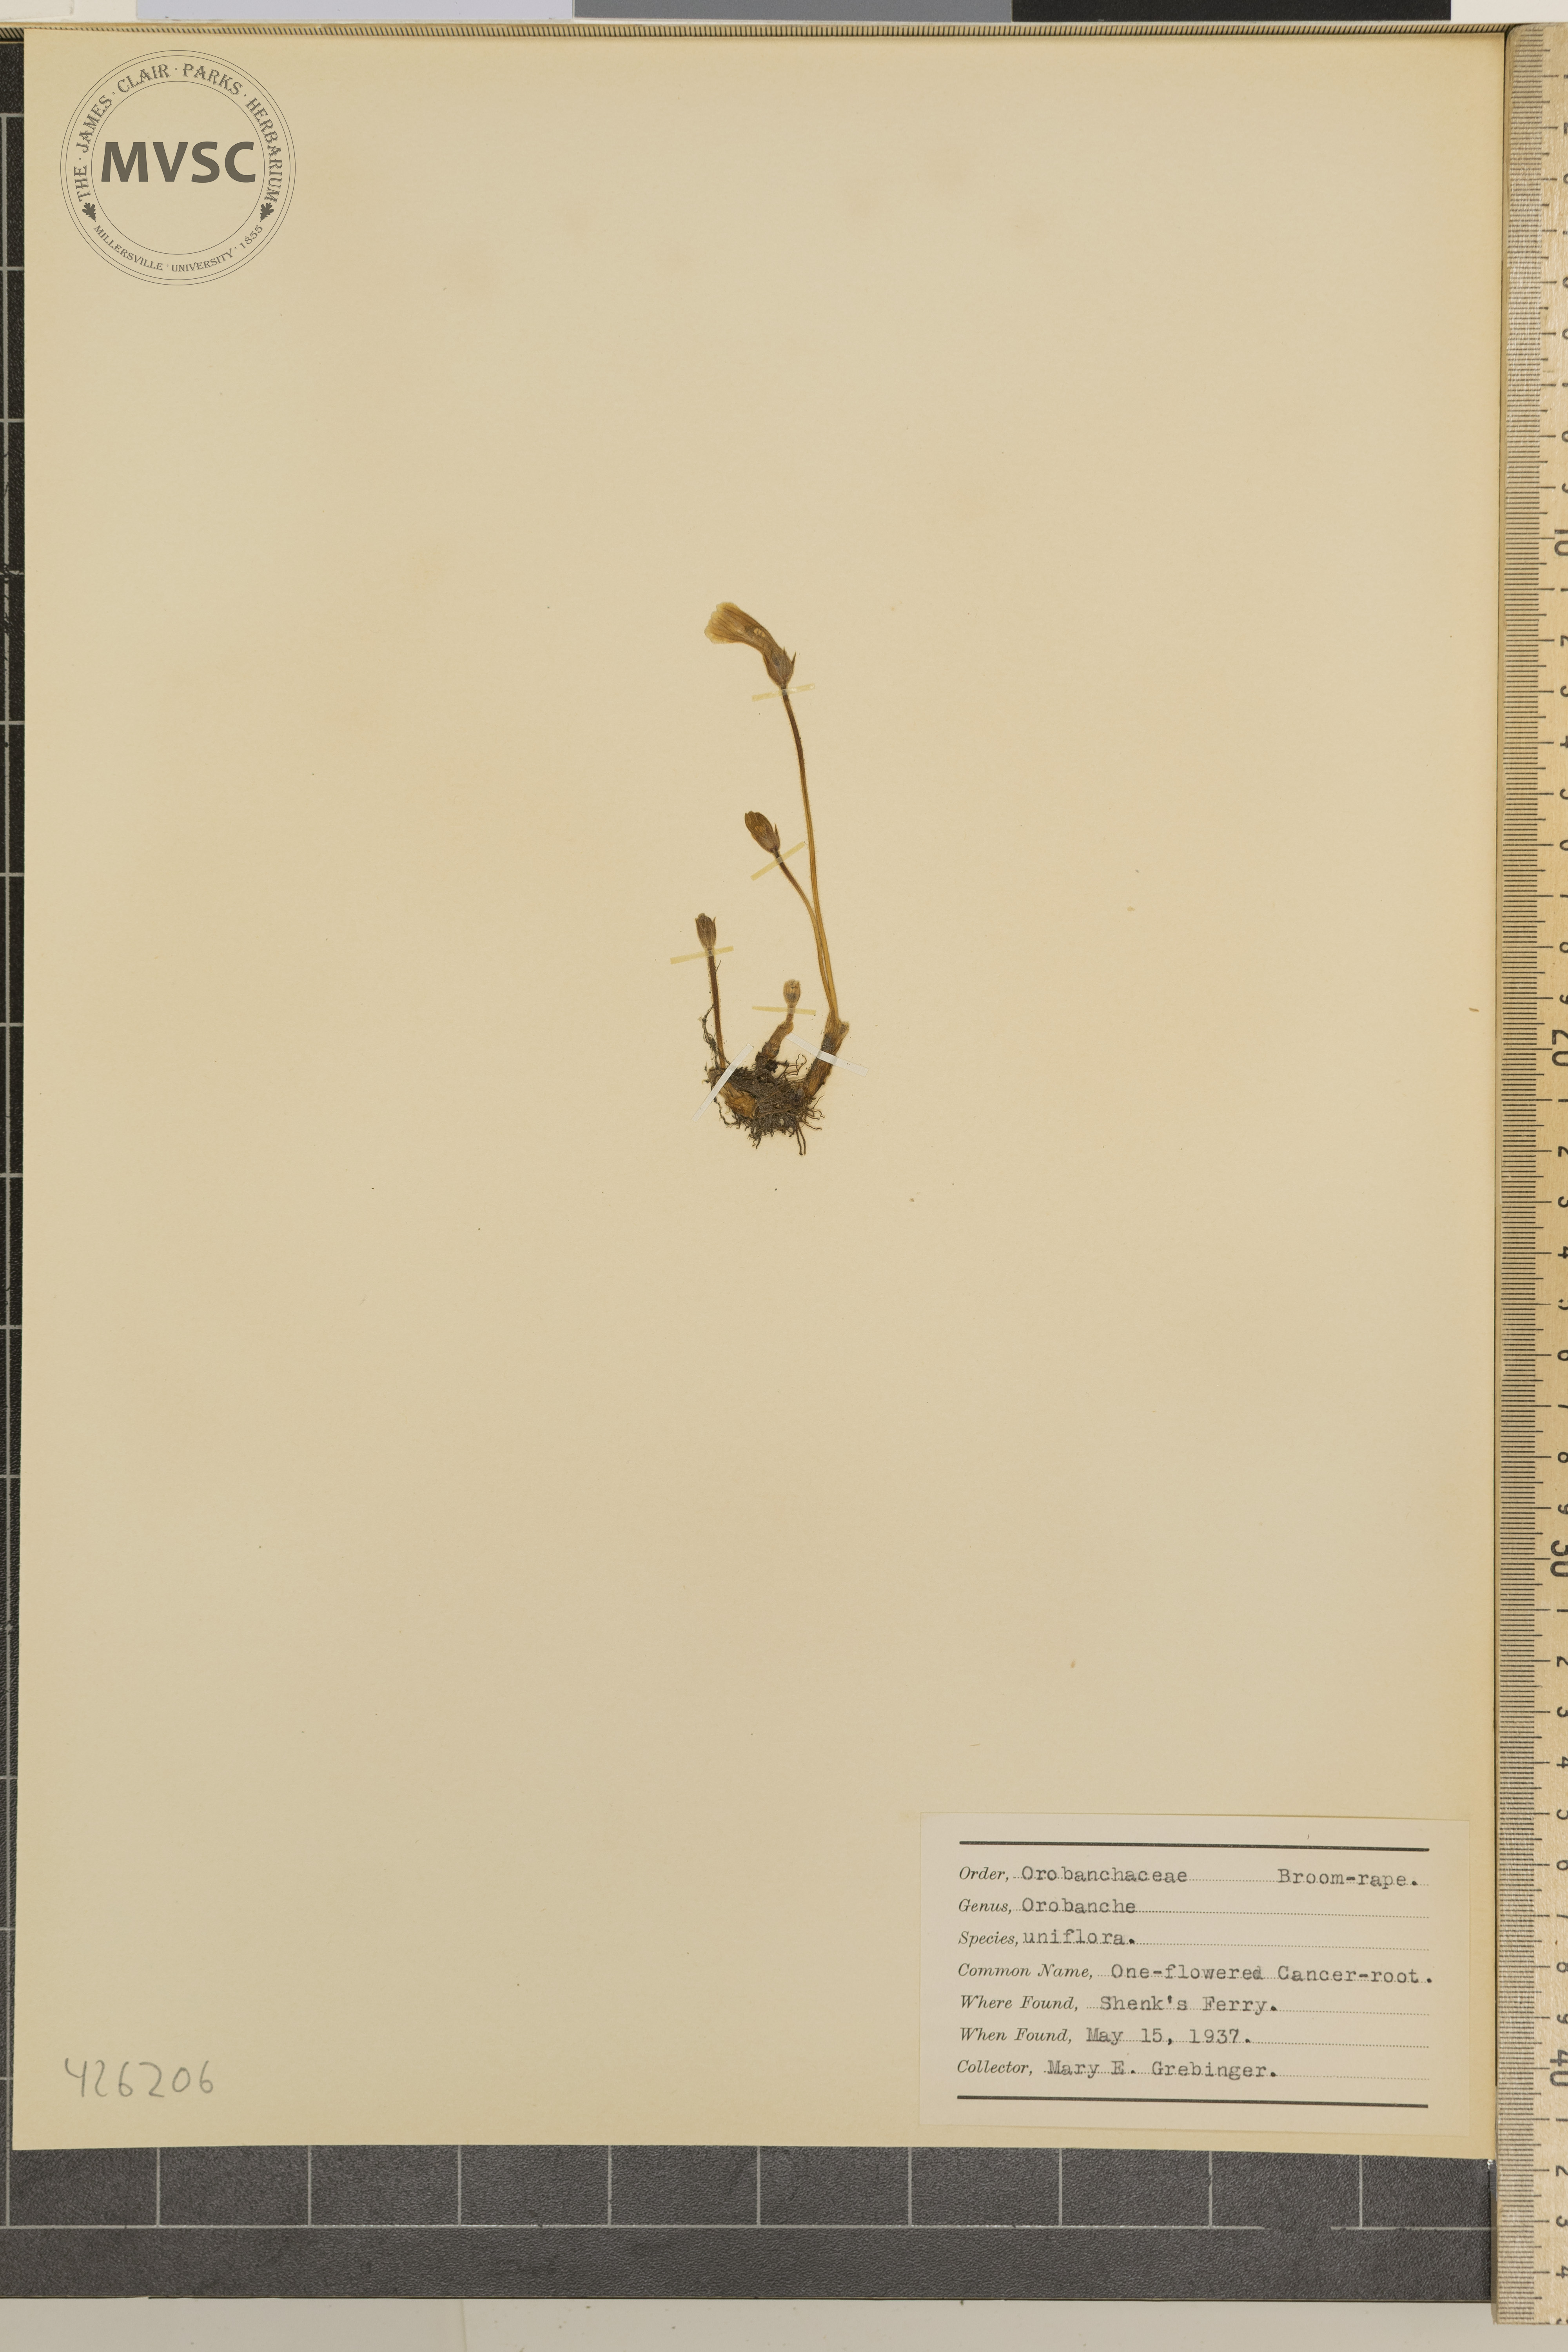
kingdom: Plantae
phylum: Tracheophyta
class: Magnoliopsida
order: Lamiales
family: Orobanchaceae
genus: Aphyllon
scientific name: Aphyllon uniflorum
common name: One-flowered cancer-root
